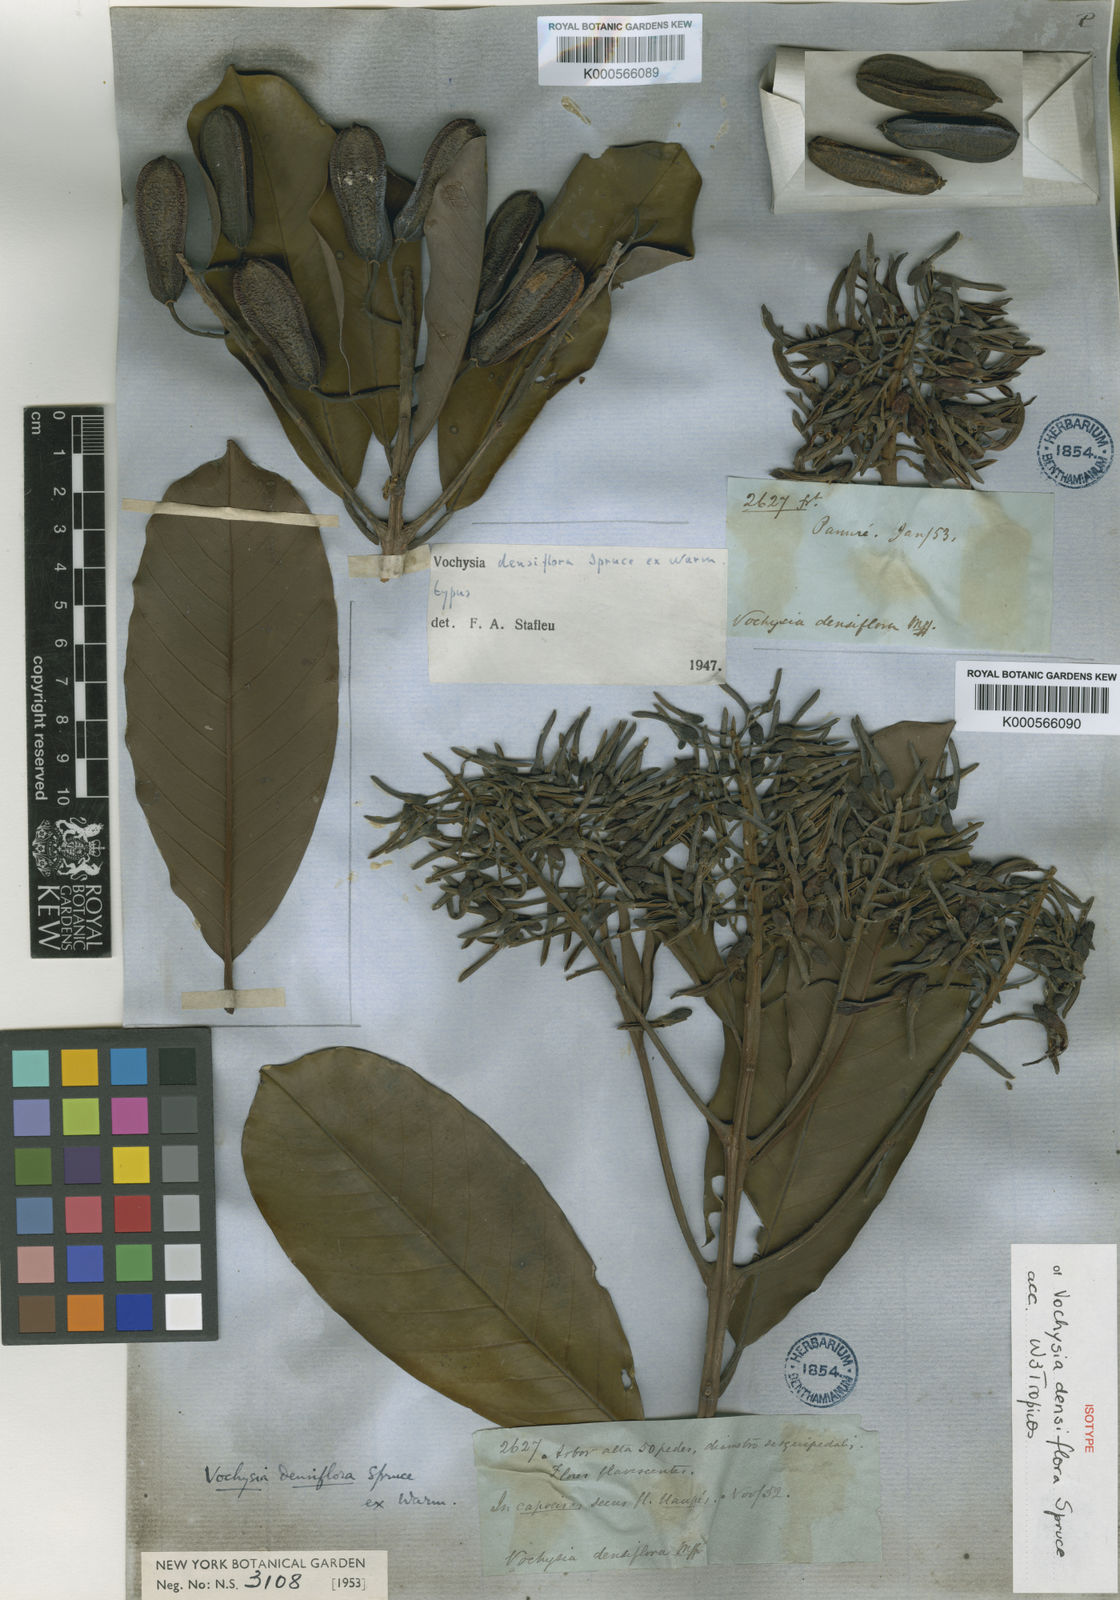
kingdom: Plantae
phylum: Tracheophyta
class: Magnoliopsida
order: Myrtales
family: Vochysiaceae
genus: Vochysia
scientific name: Vochysia densiflora
